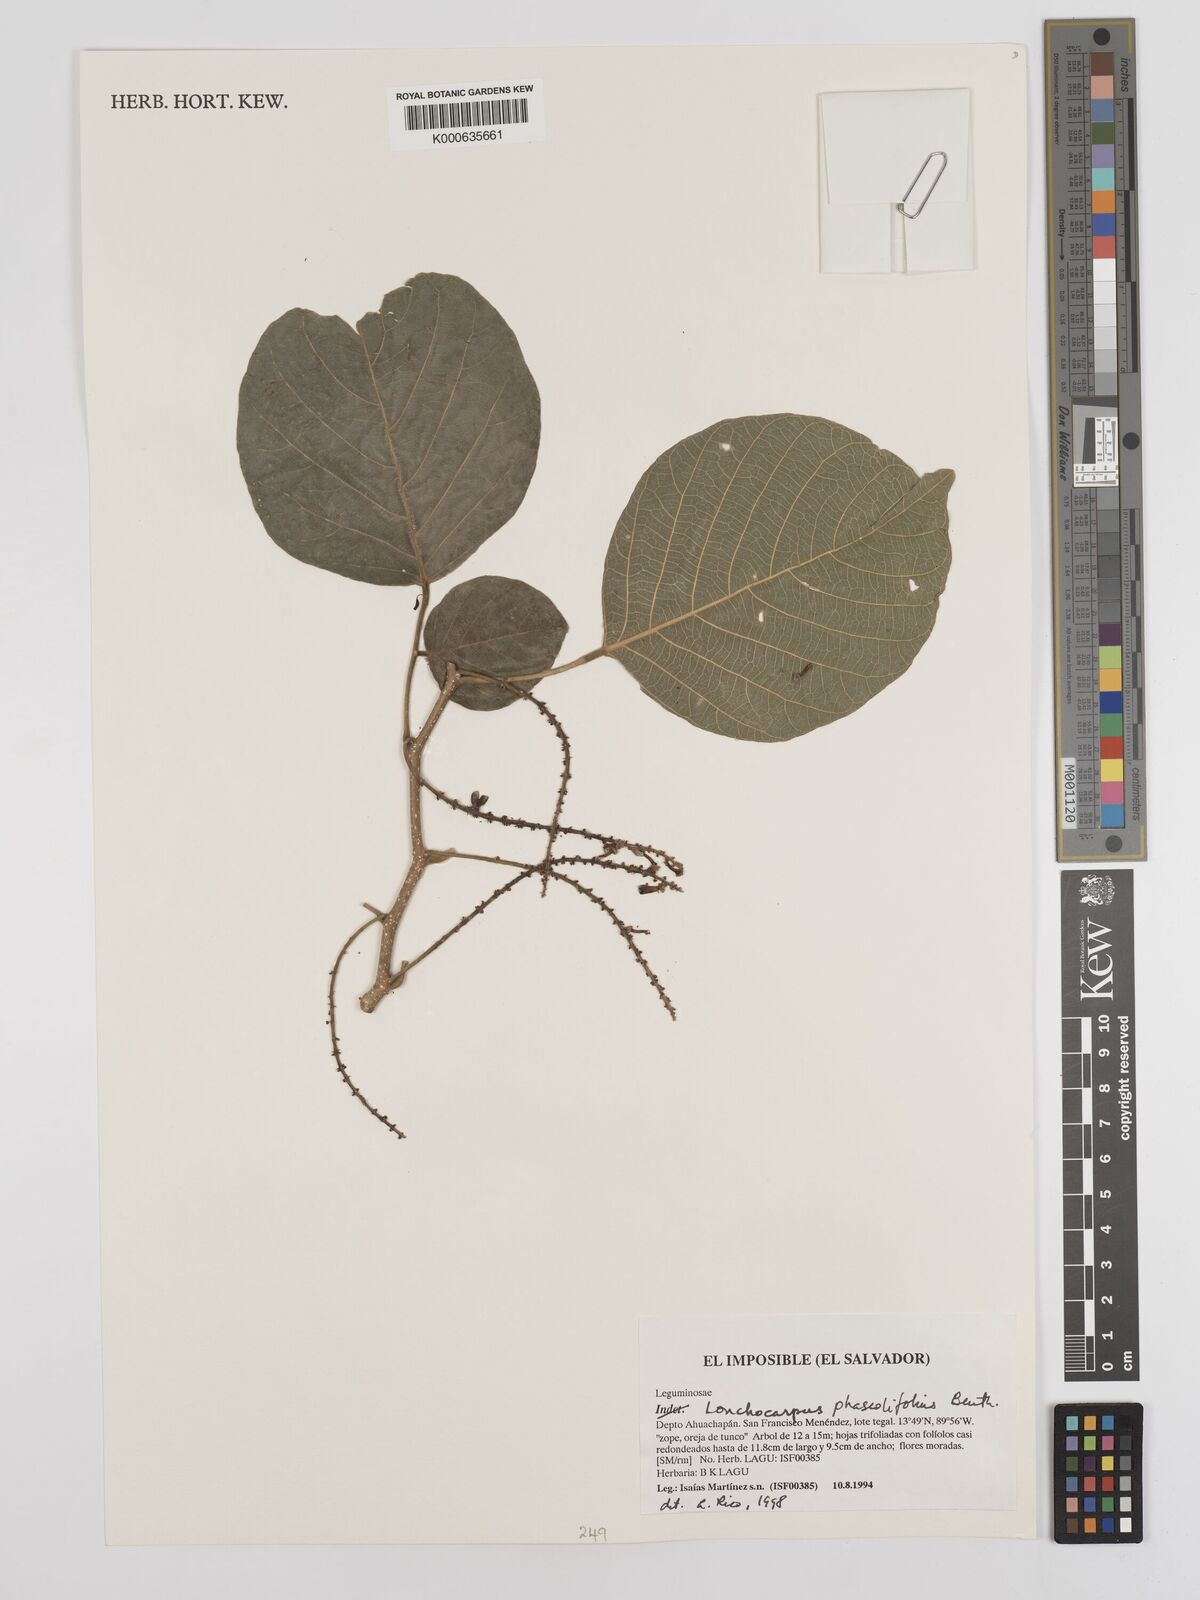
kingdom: Plantae
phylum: Tracheophyta
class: Magnoliopsida
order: Fabales
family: Fabaceae
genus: Lonchocarpus
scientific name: Lonchocarpus phaseolifolius
